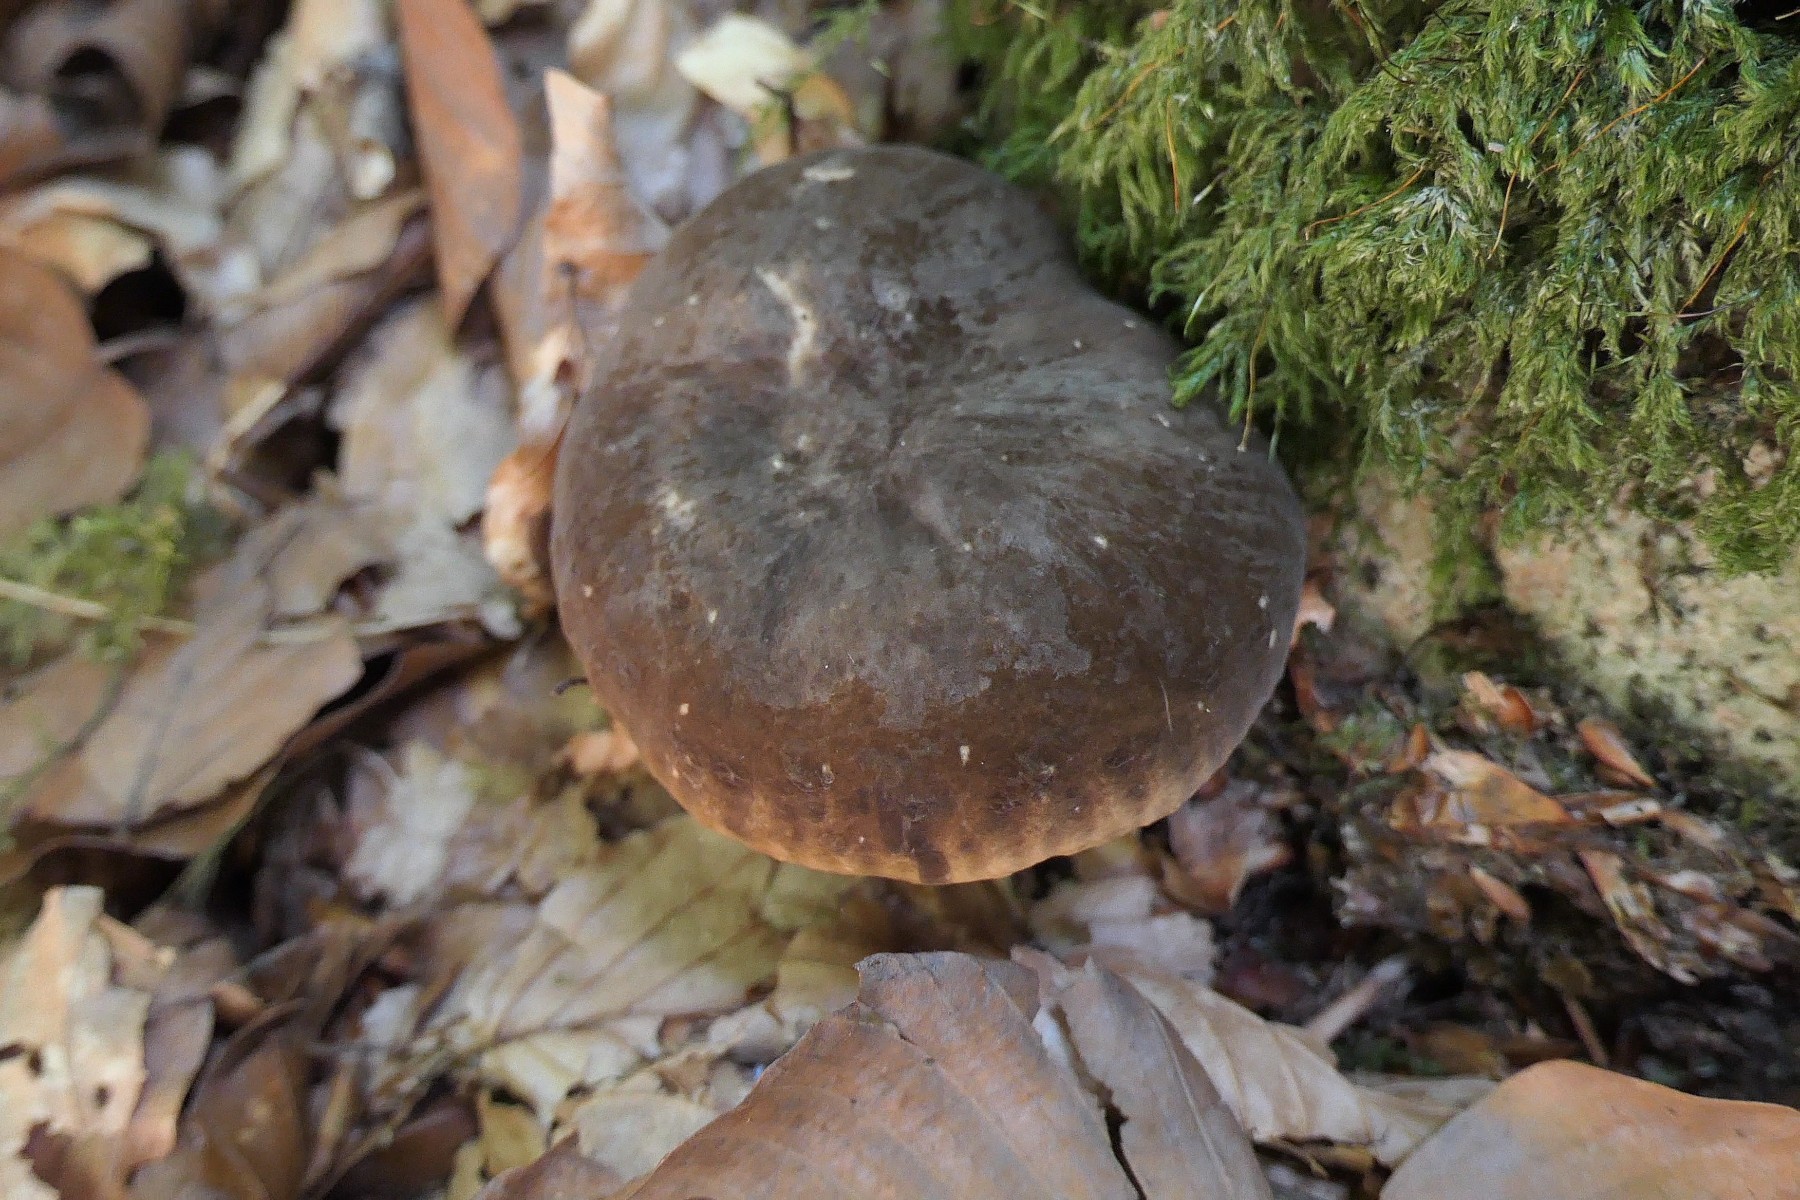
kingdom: Fungi
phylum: Basidiomycota
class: Agaricomycetes
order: Russulales
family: Russulaceae
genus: Lactarius
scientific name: Lactarius romagnesii
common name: fjernbladet mælkehat
